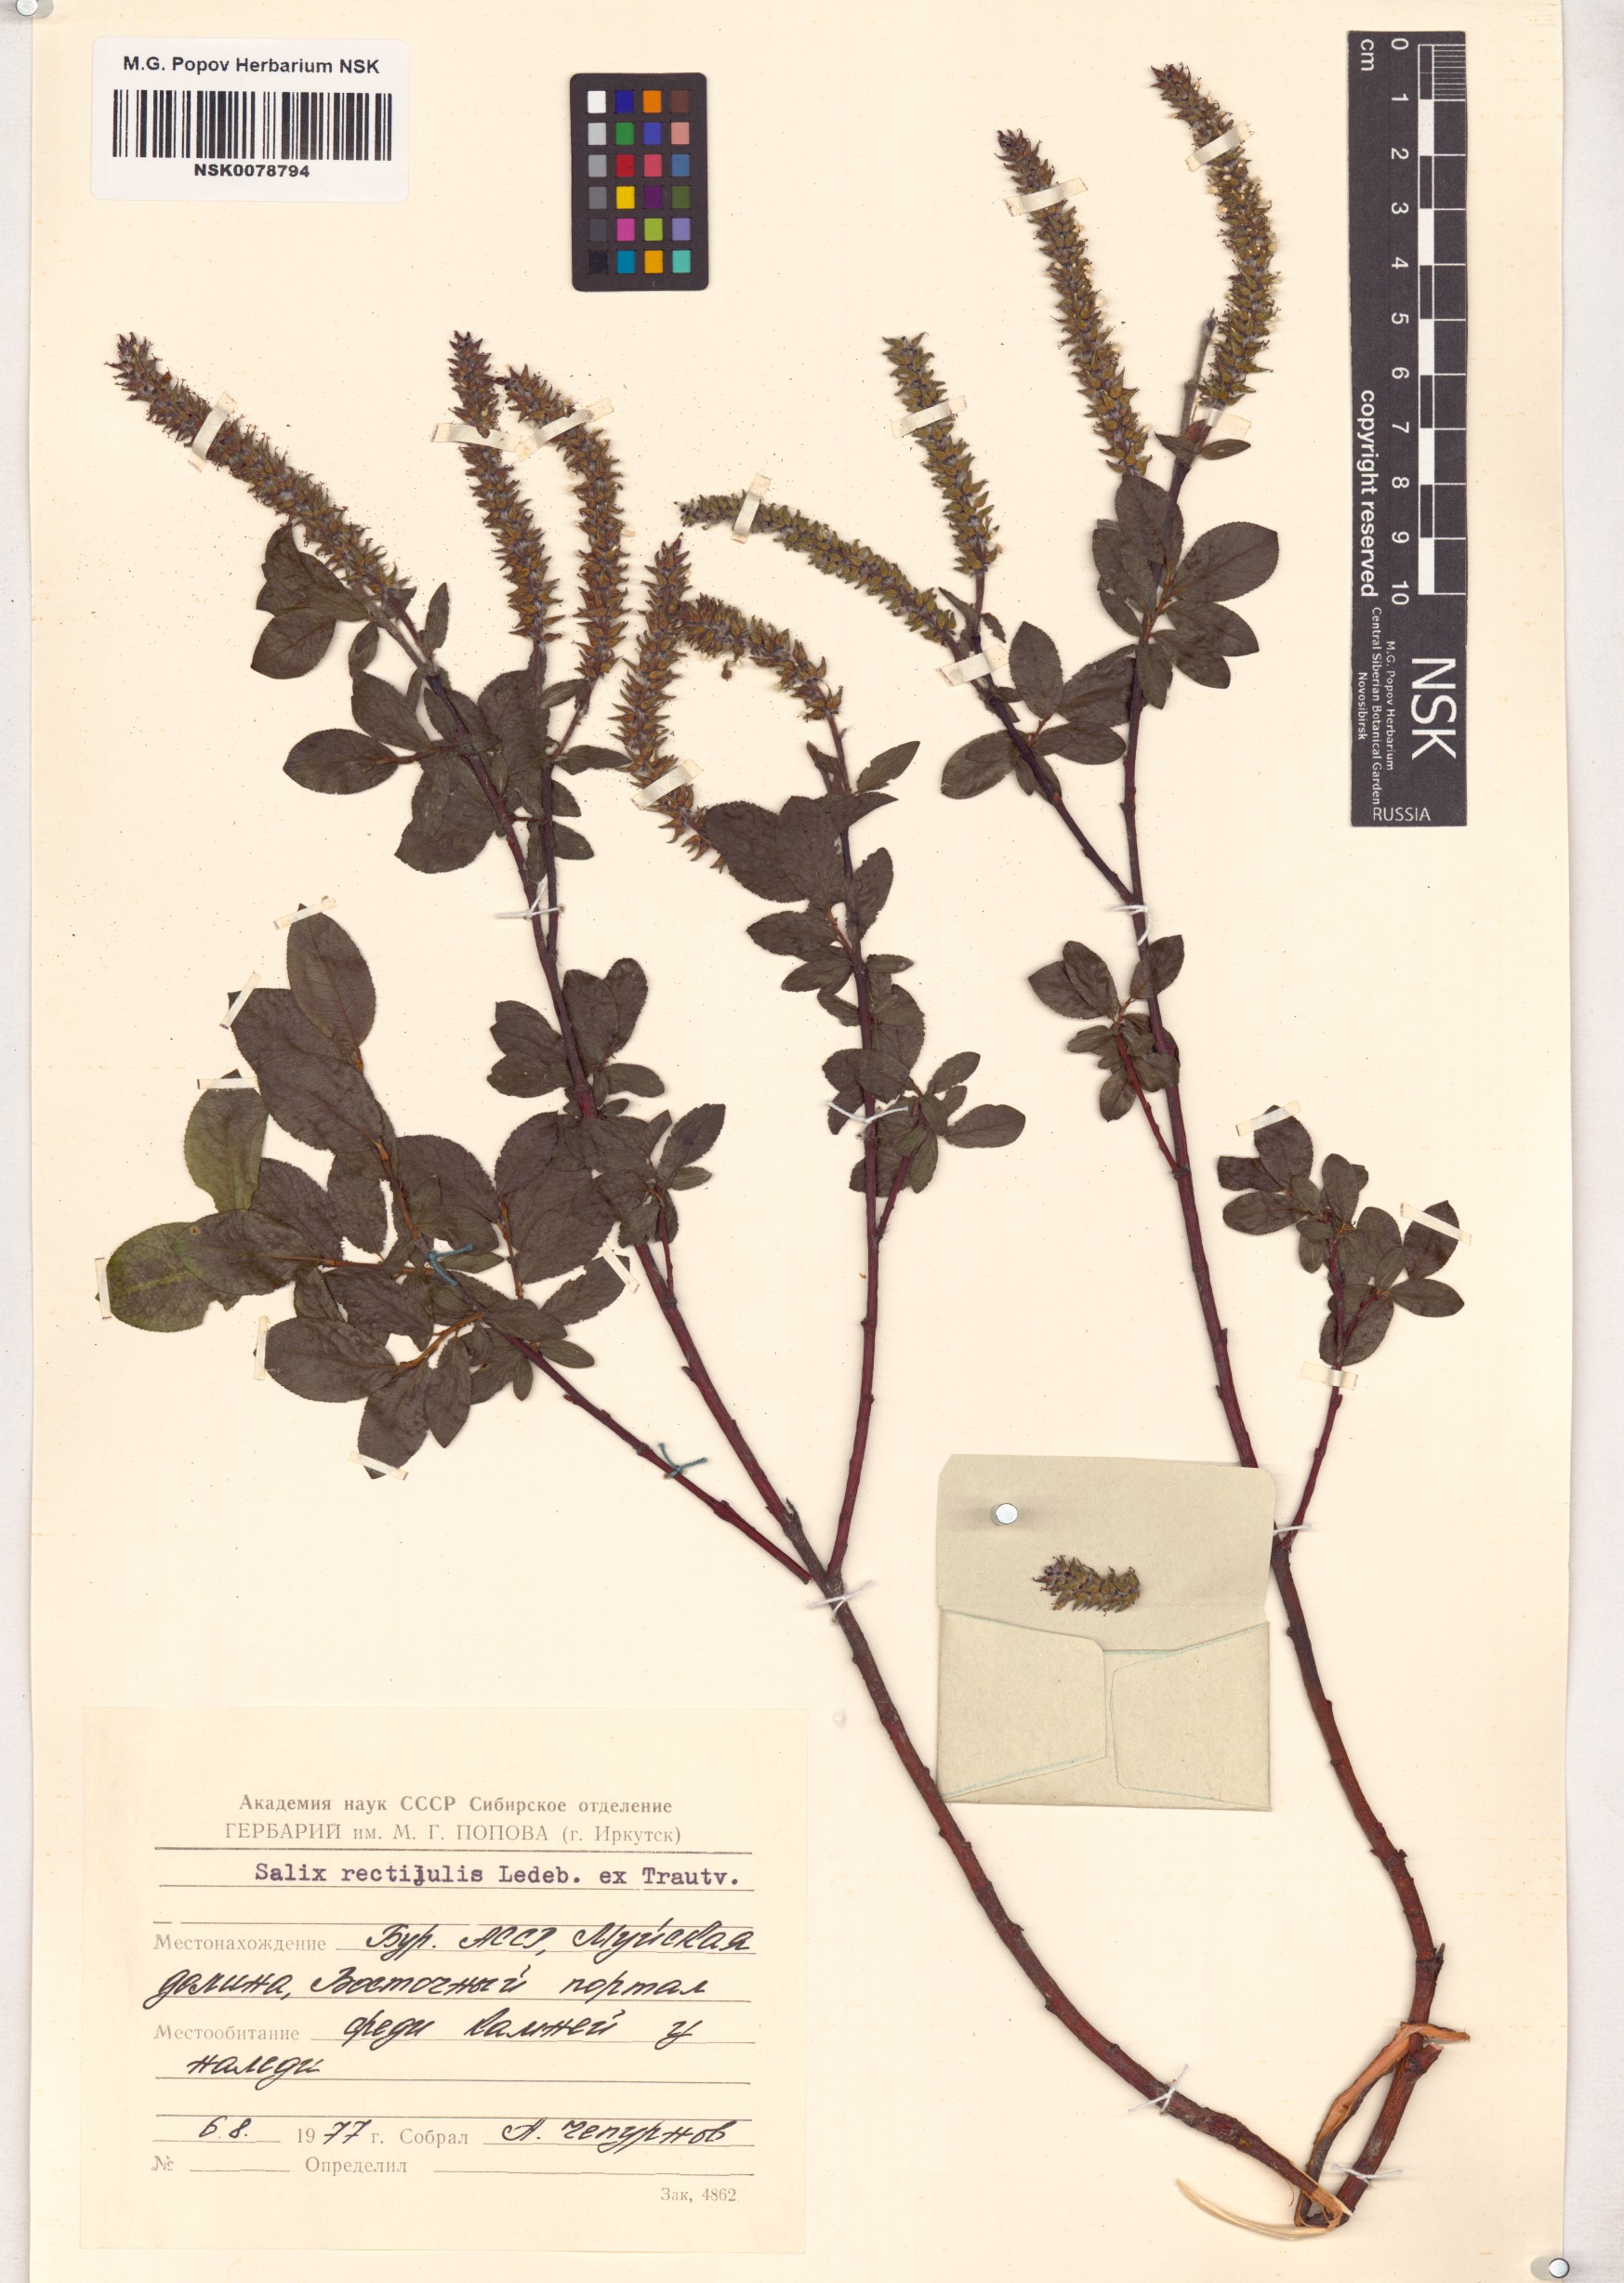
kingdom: Plantae
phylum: Tracheophyta
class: Magnoliopsida
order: Malpighiales
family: Salicaceae
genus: Salix
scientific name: Salix rectijulis
